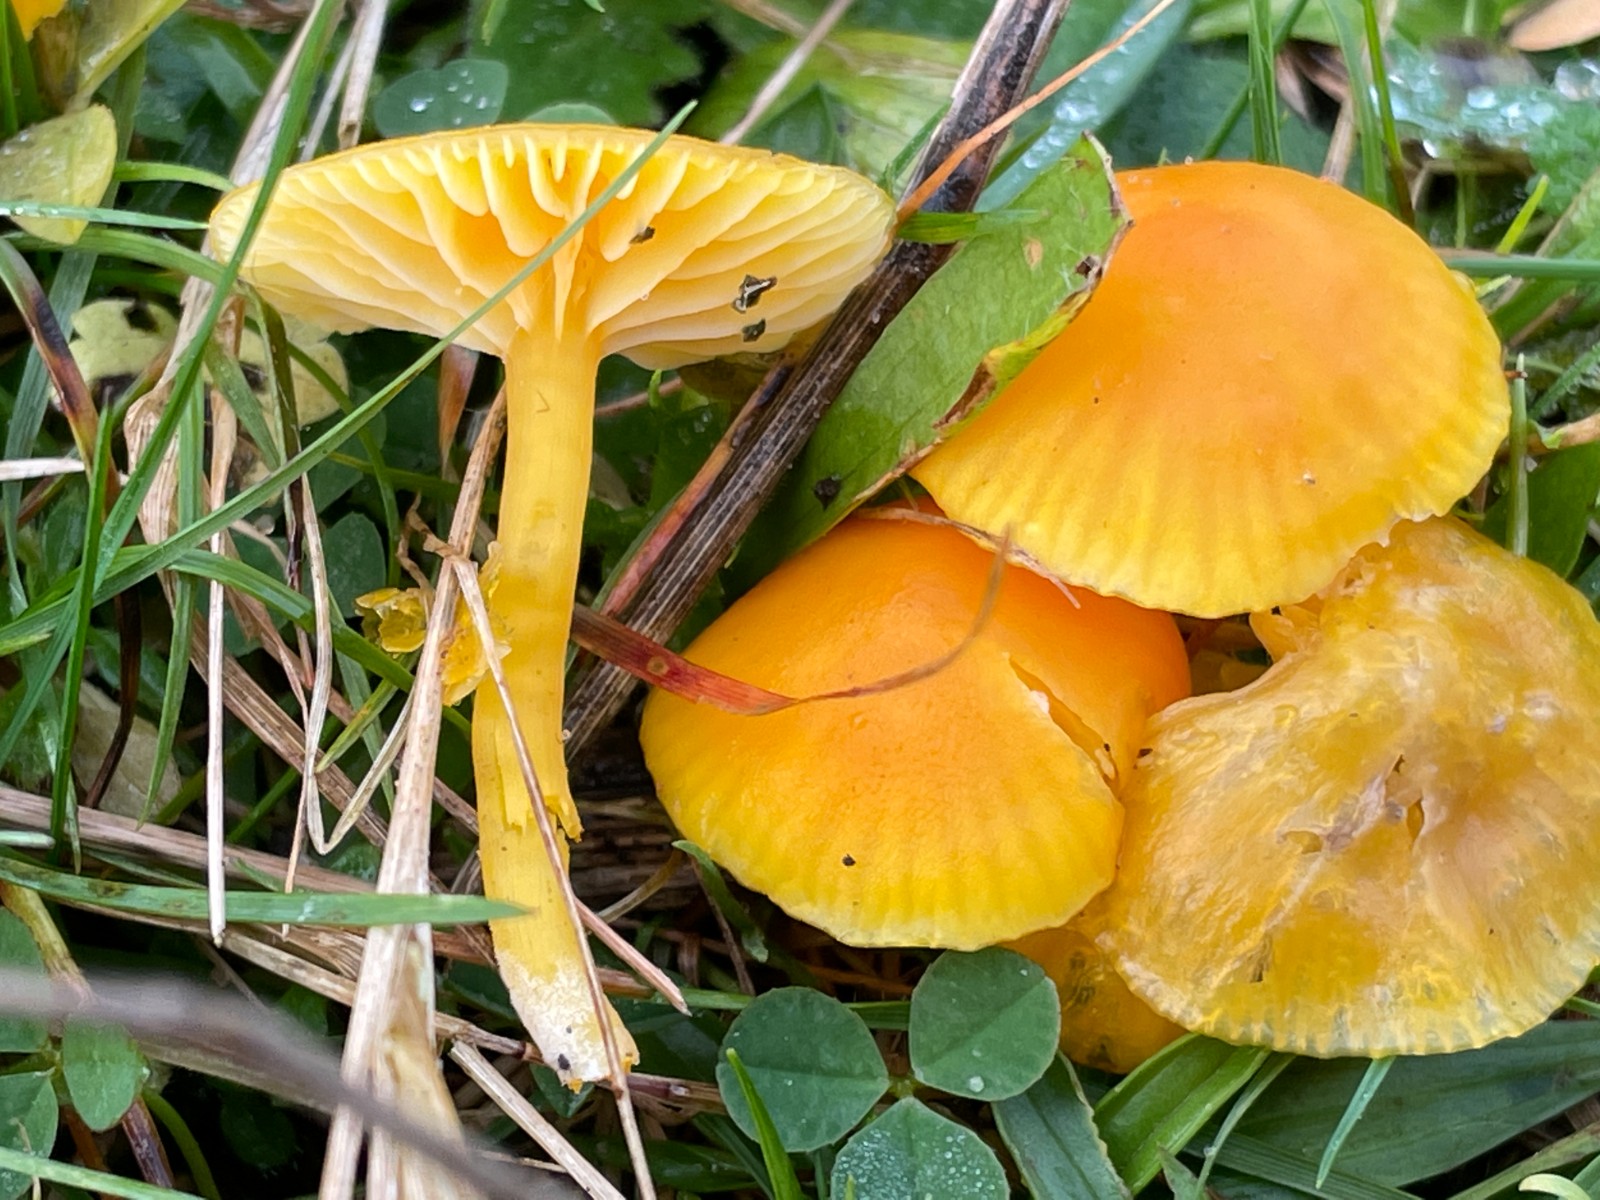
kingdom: Fungi
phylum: Basidiomycota
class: Agaricomycetes
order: Agaricales
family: Hygrophoraceae
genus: Hygrocybe
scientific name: Hygrocybe ceracea
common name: voksgul vokshat
